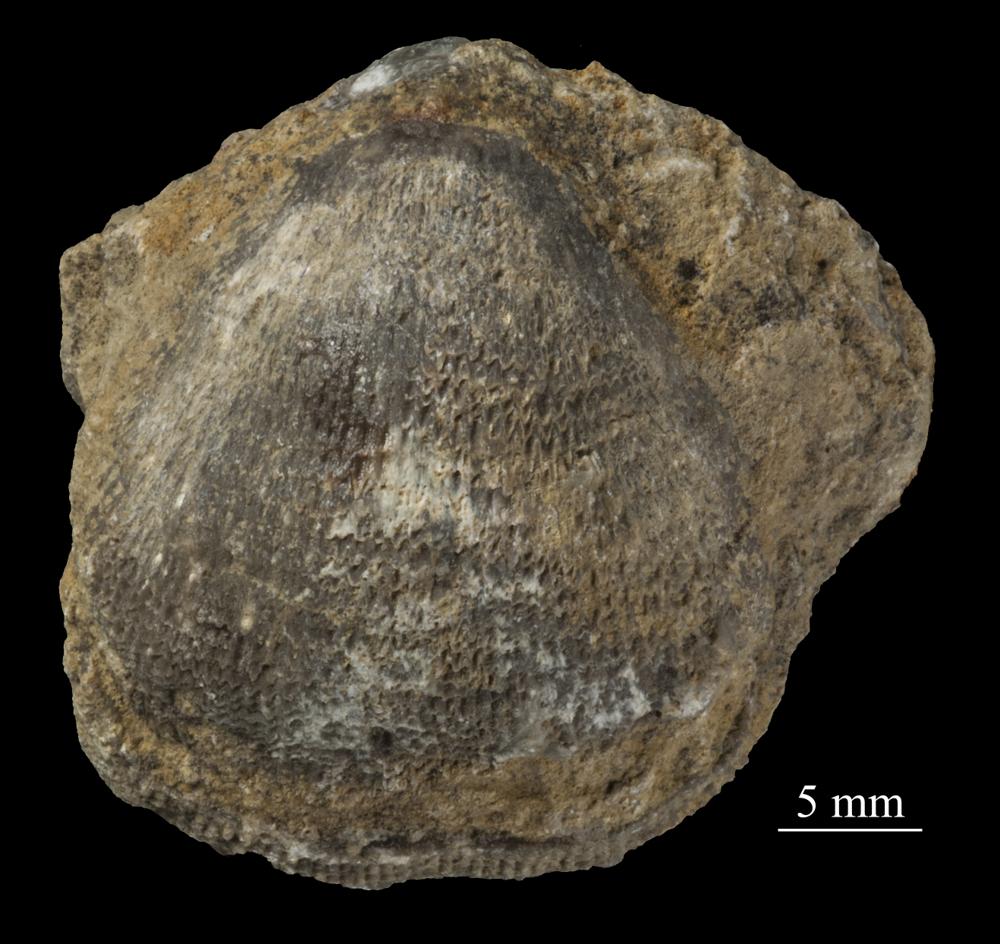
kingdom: Animalia
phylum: Brachiopoda
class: Rhynchonellata
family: Clitambonitidae
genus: Clitambonites
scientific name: Clitambonites squamatus
